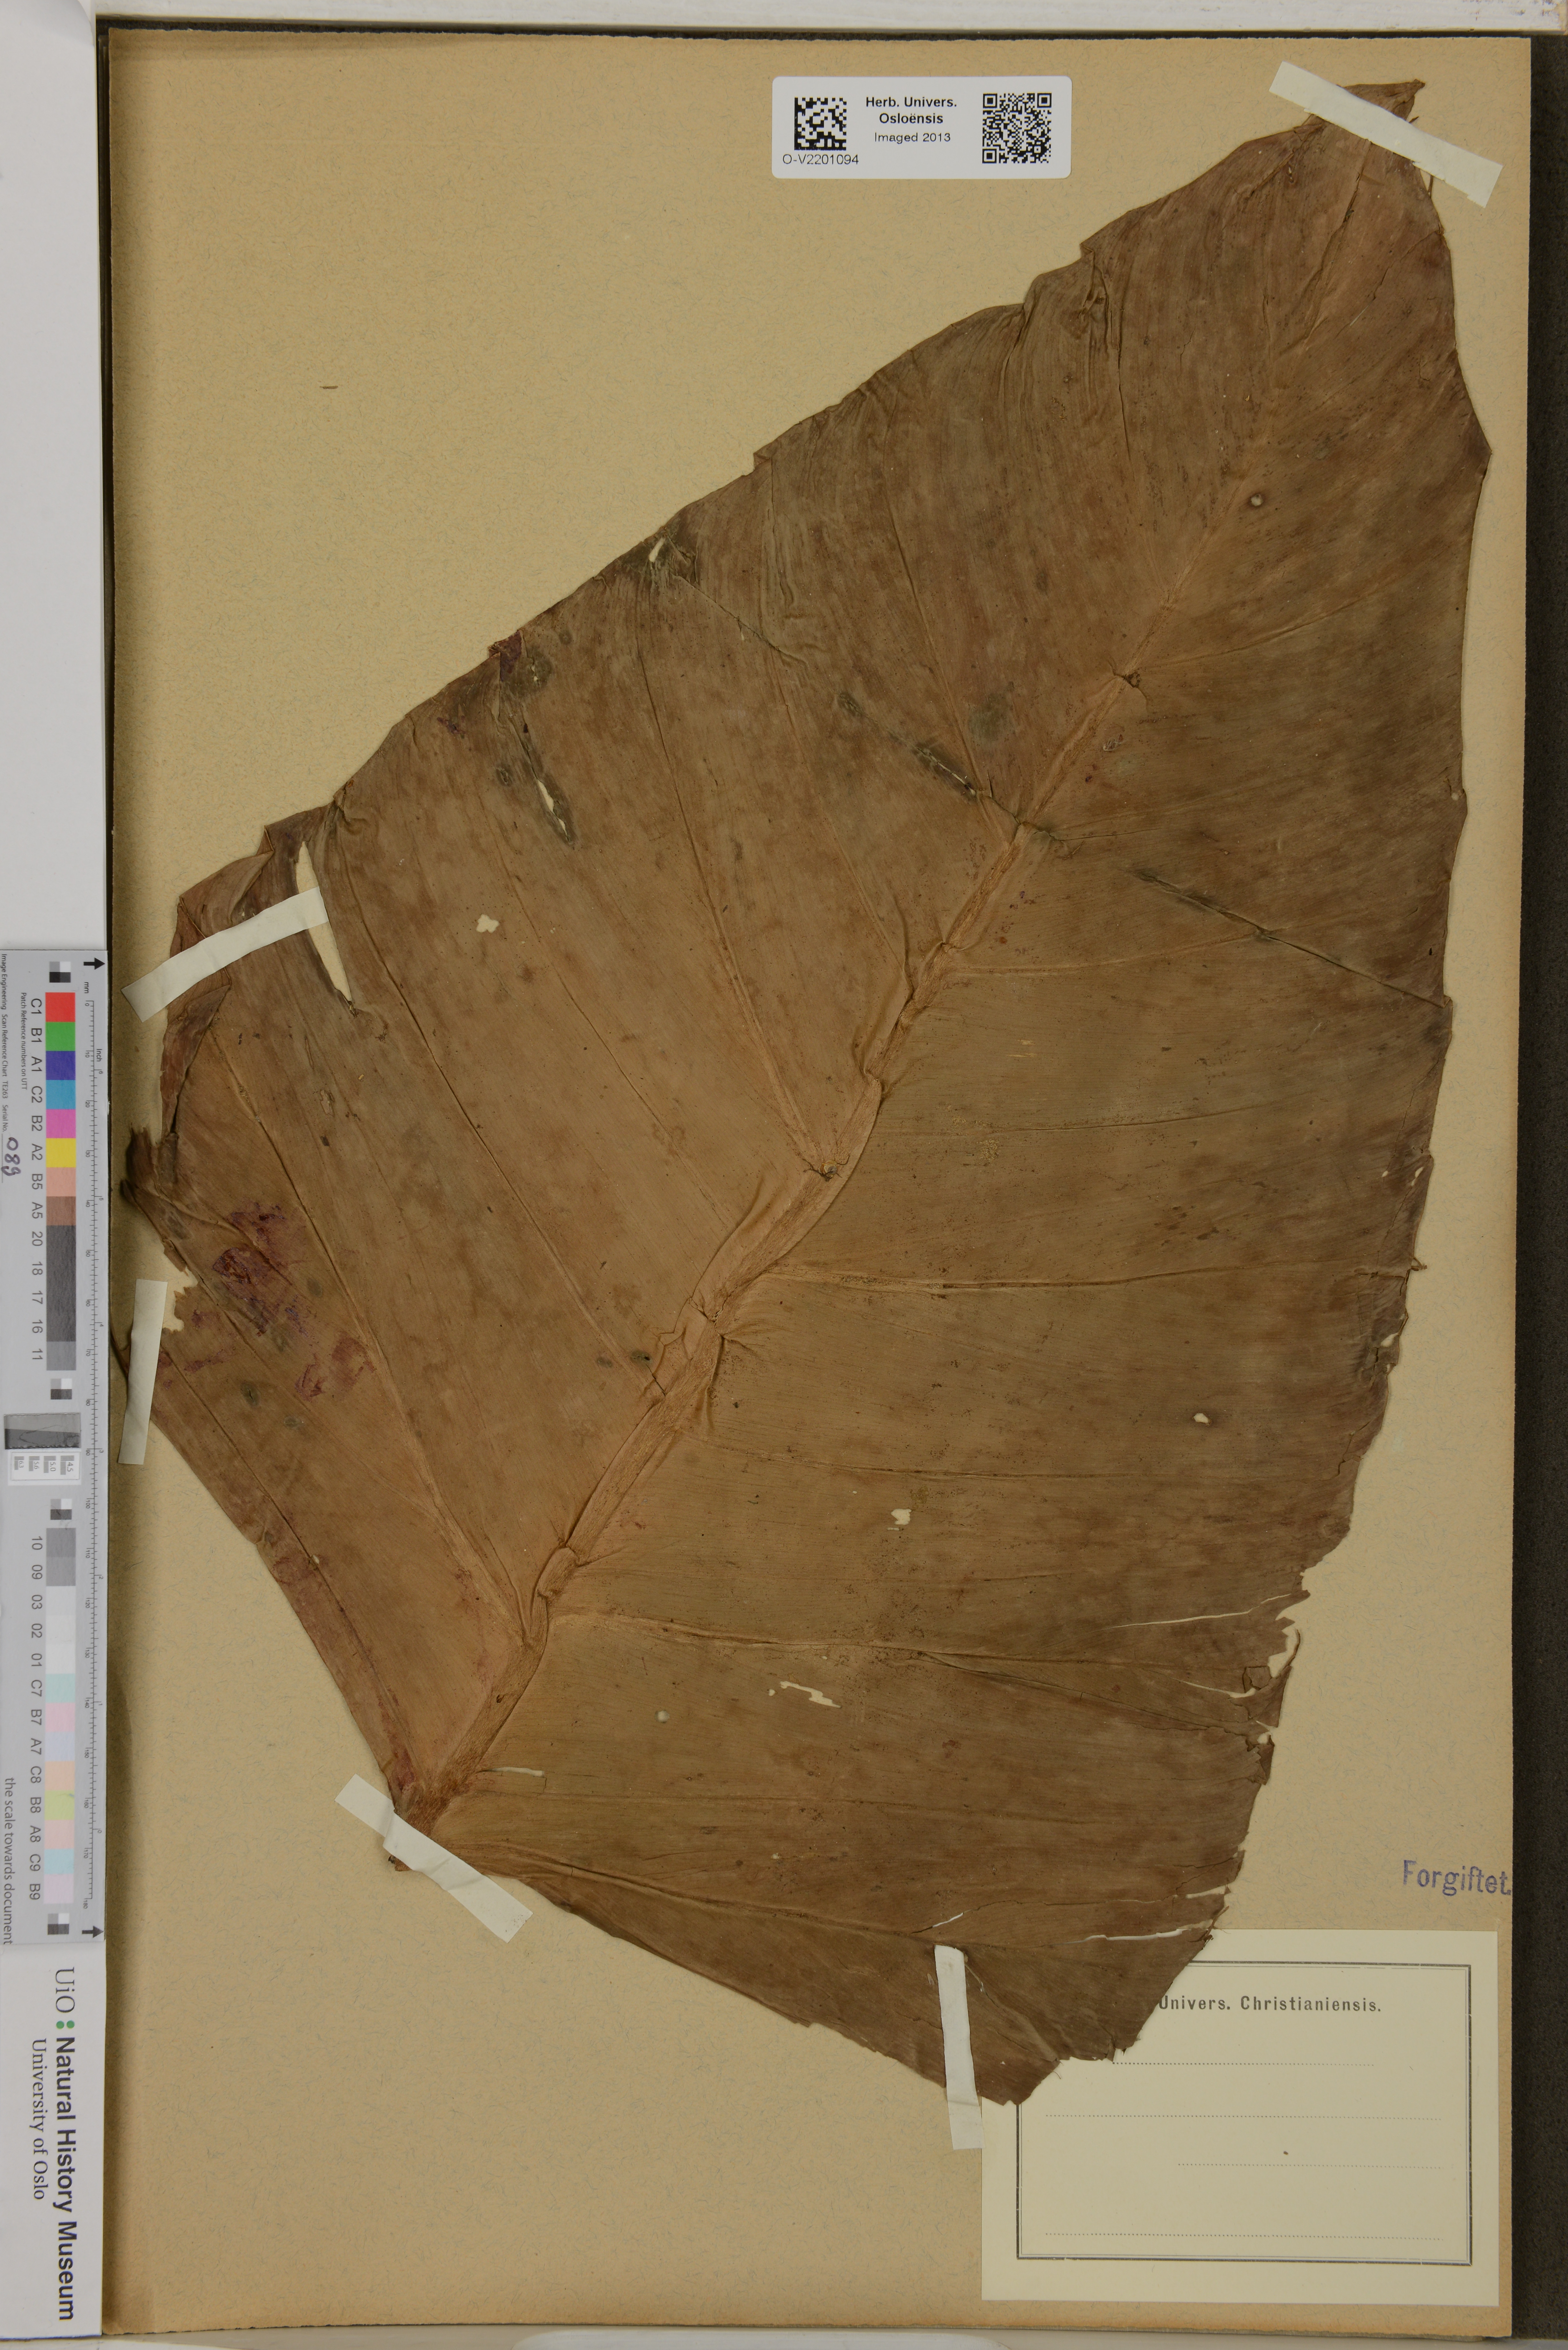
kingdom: Plantae
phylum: Tracheophyta
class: Liliopsida
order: Alismatales
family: Araceae
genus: Philodendron
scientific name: Philodendron minarum
